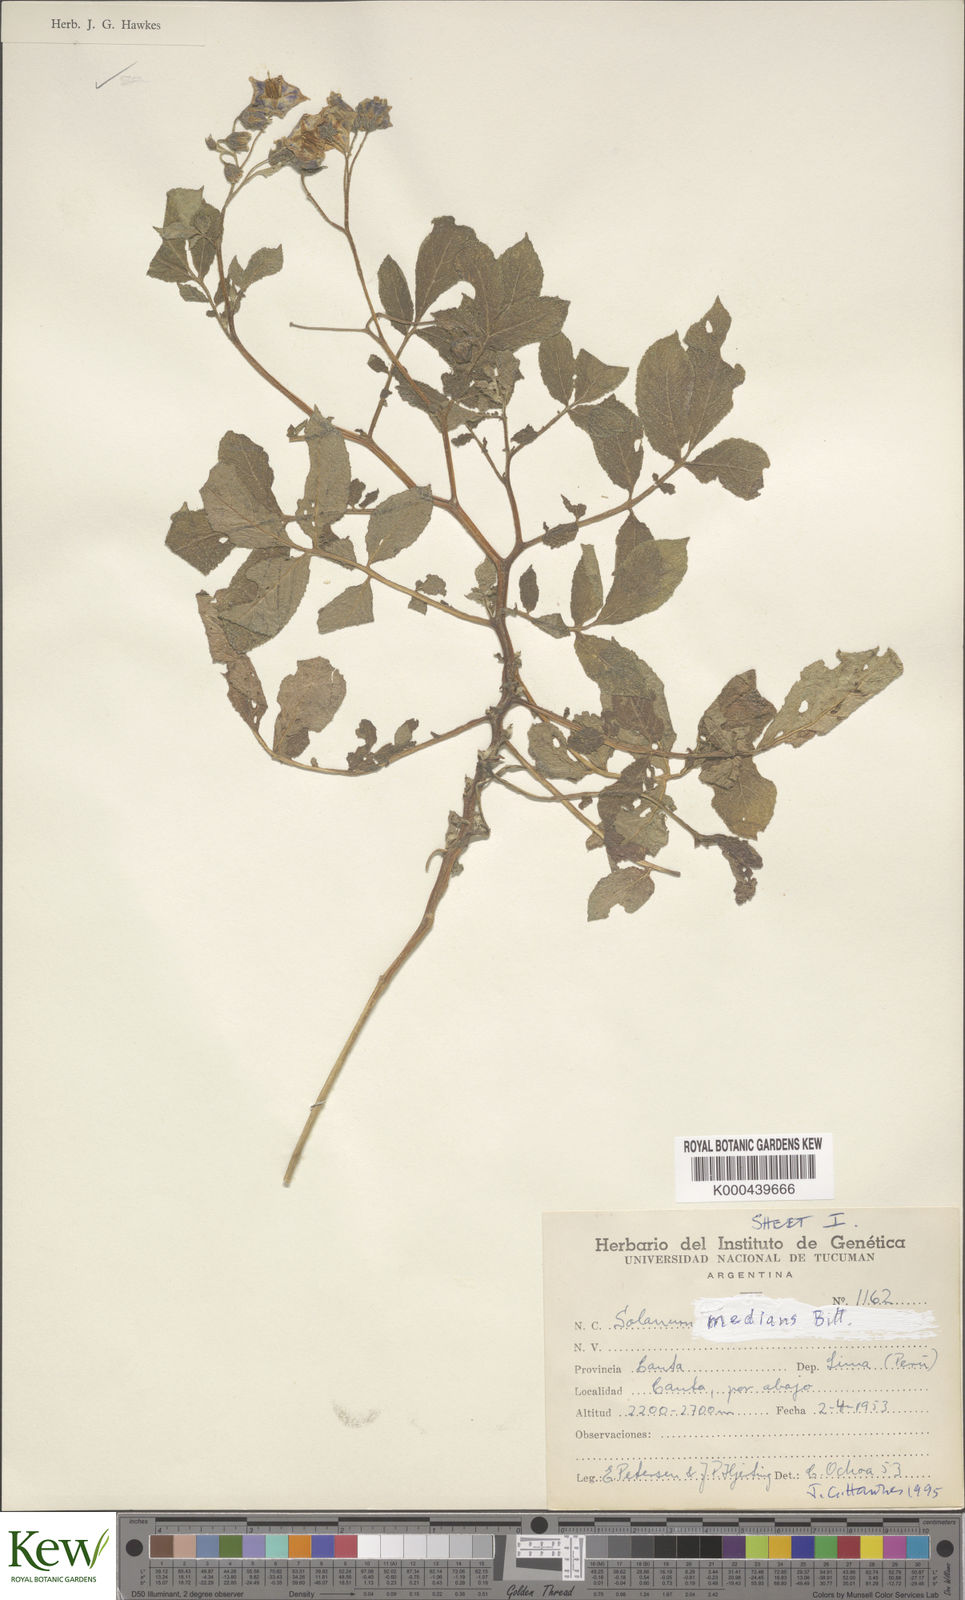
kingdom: Plantae
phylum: Tracheophyta
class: Magnoliopsida
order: Solanales
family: Solanaceae
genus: Solanum
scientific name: Solanum medians
